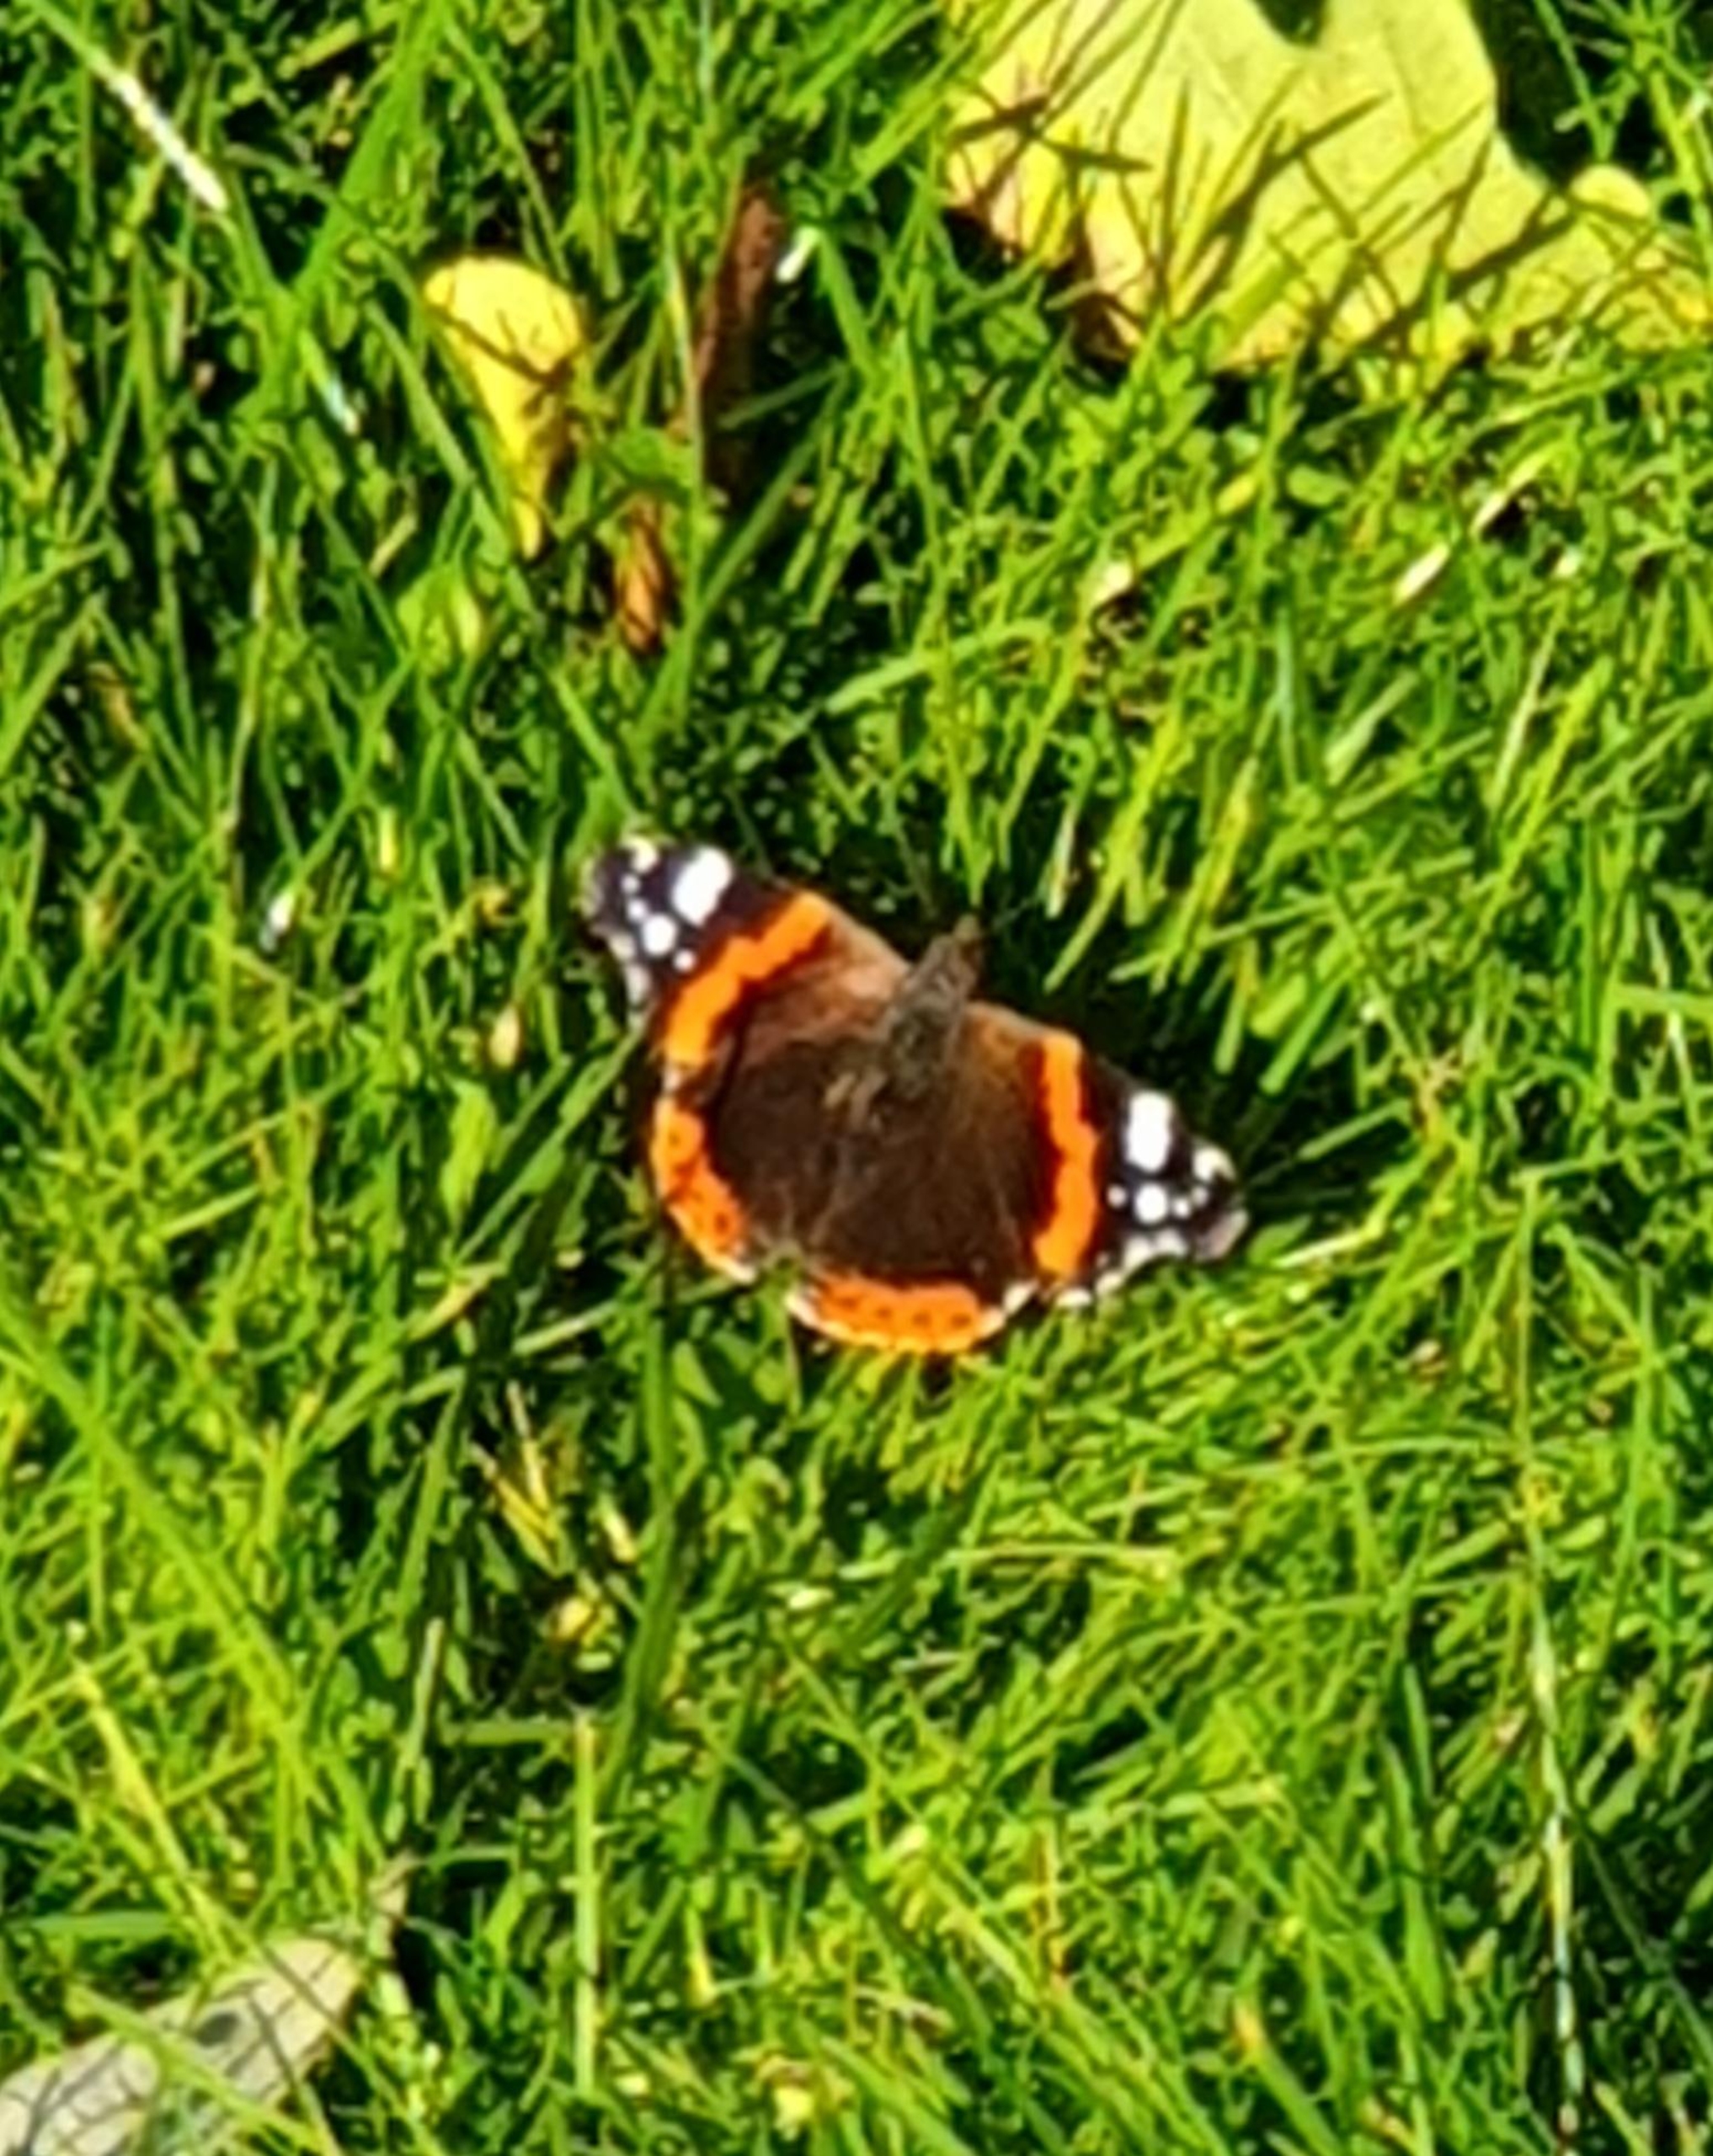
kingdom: Animalia
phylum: Arthropoda
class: Insecta
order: Lepidoptera
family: Nymphalidae
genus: Vanessa
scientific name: Vanessa atalanta
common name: Admiral
